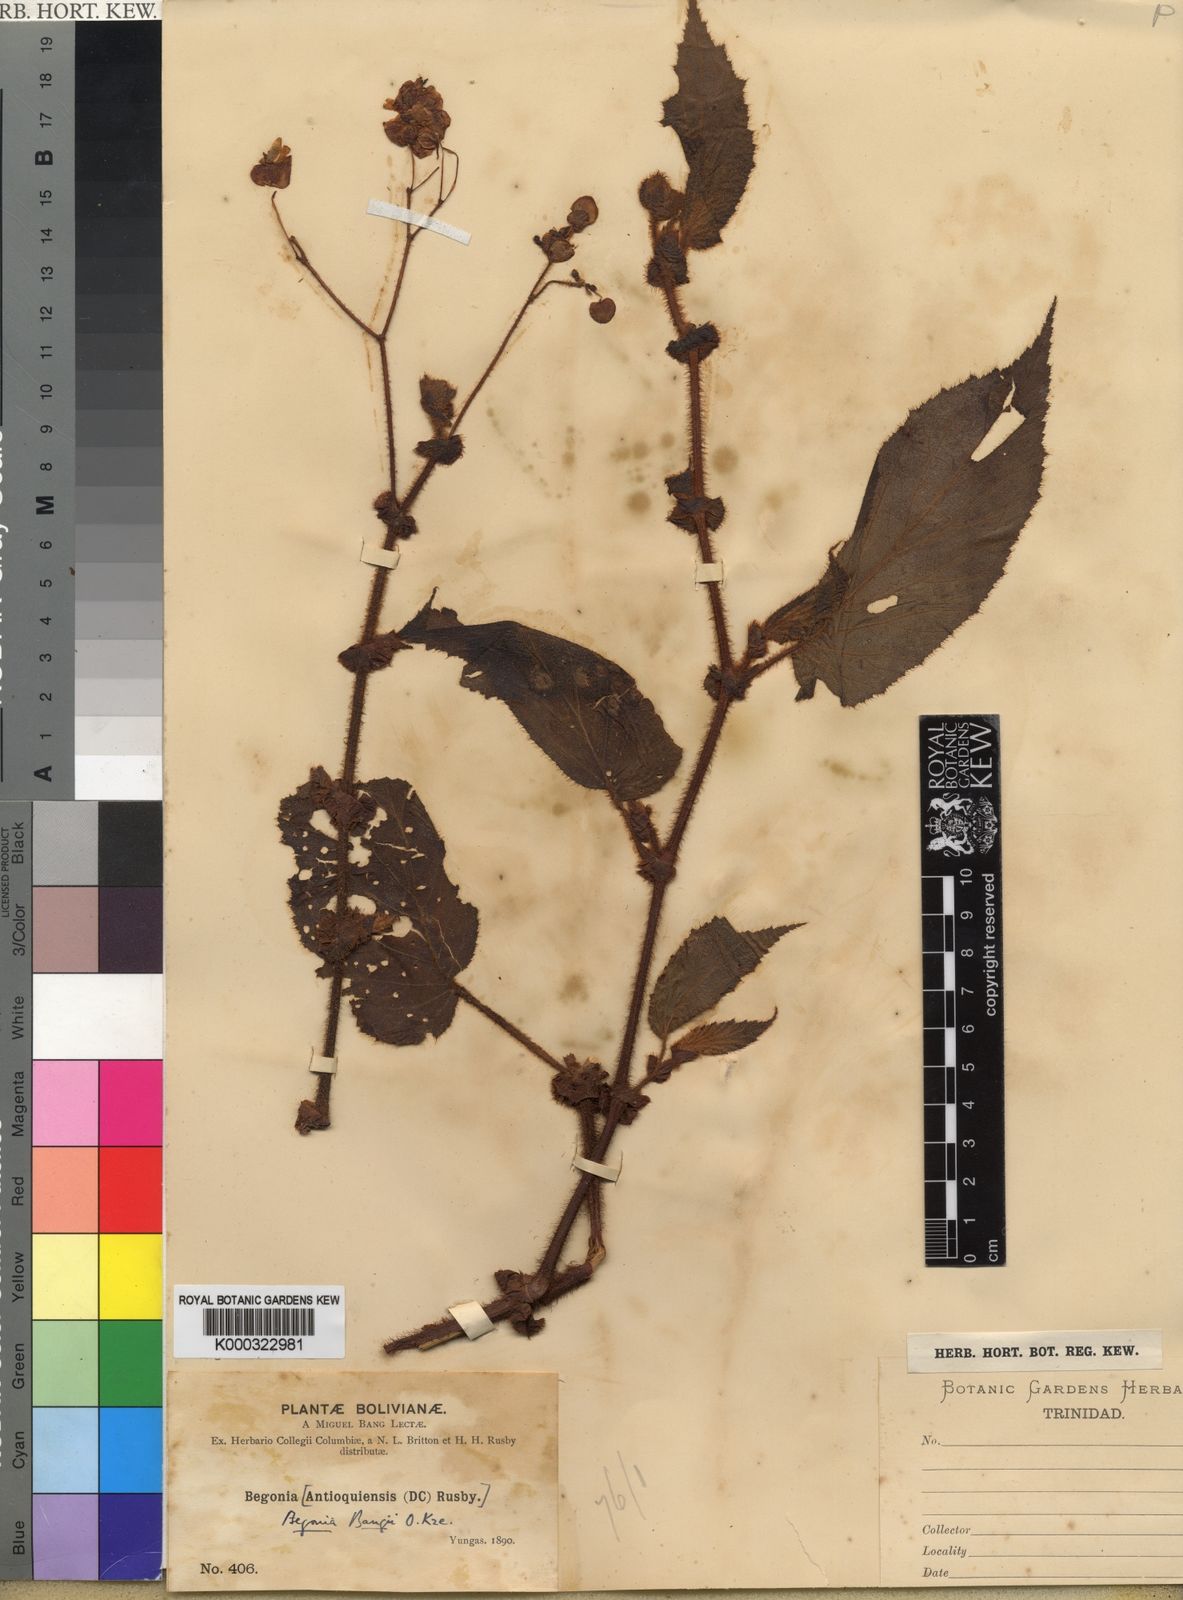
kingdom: Plantae
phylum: Tracheophyta
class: Magnoliopsida
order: Cucurbitales
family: Begoniaceae
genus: Begonia
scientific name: Begonia bangii
